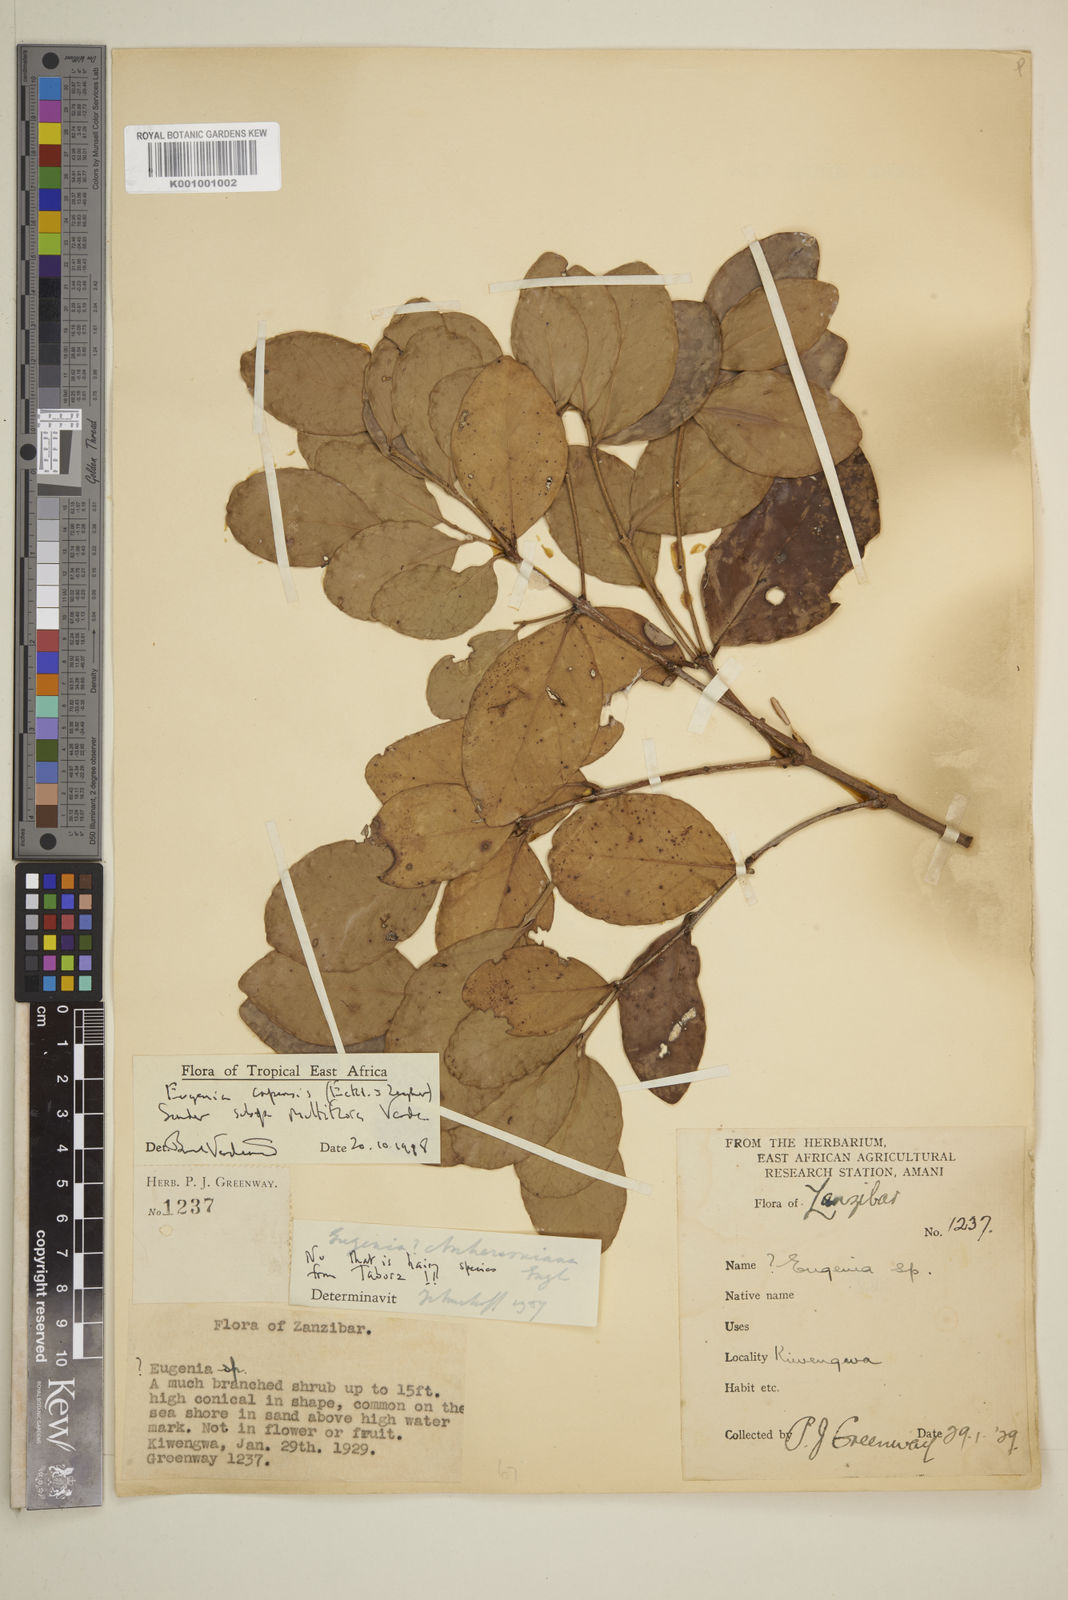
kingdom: Plantae
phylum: Tracheophyta
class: Magnoliopsida
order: Myrtales
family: Myrtaceae
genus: Eugenia
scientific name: Eugenia capensis
